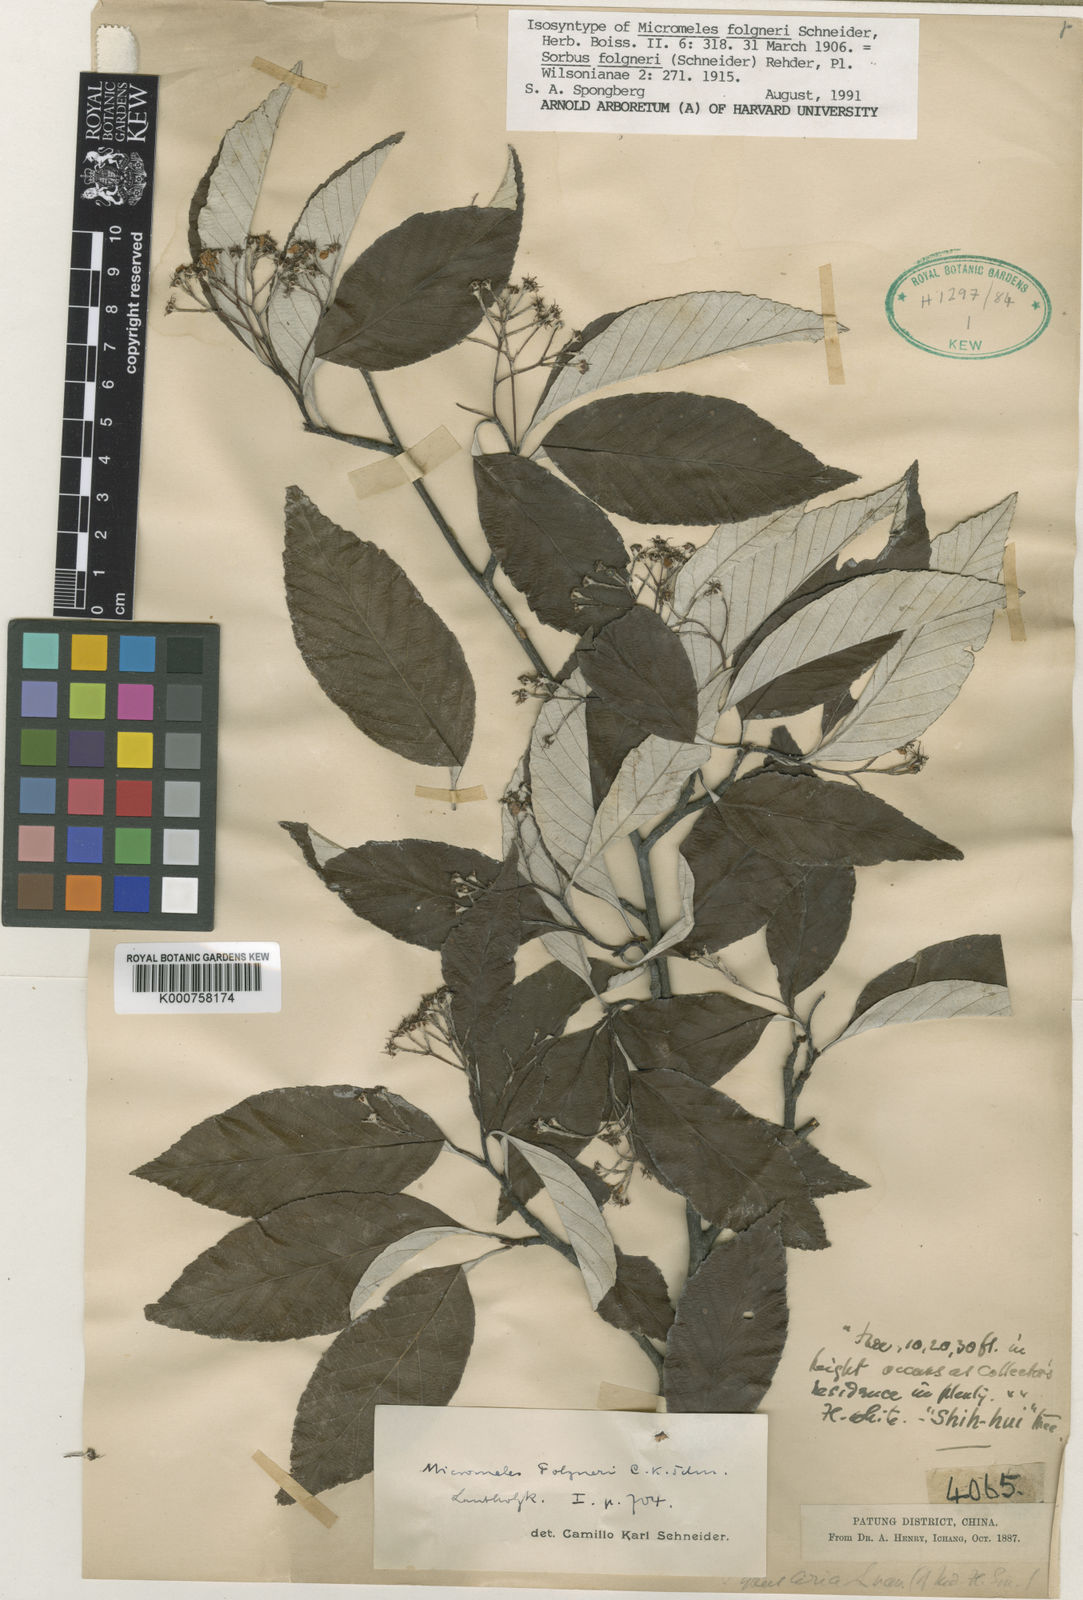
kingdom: Plantae
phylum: Tracheophyta
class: Magnoliopsida
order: Rosales
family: Rosaceae
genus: Sorbus
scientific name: Sorbus folgneri
